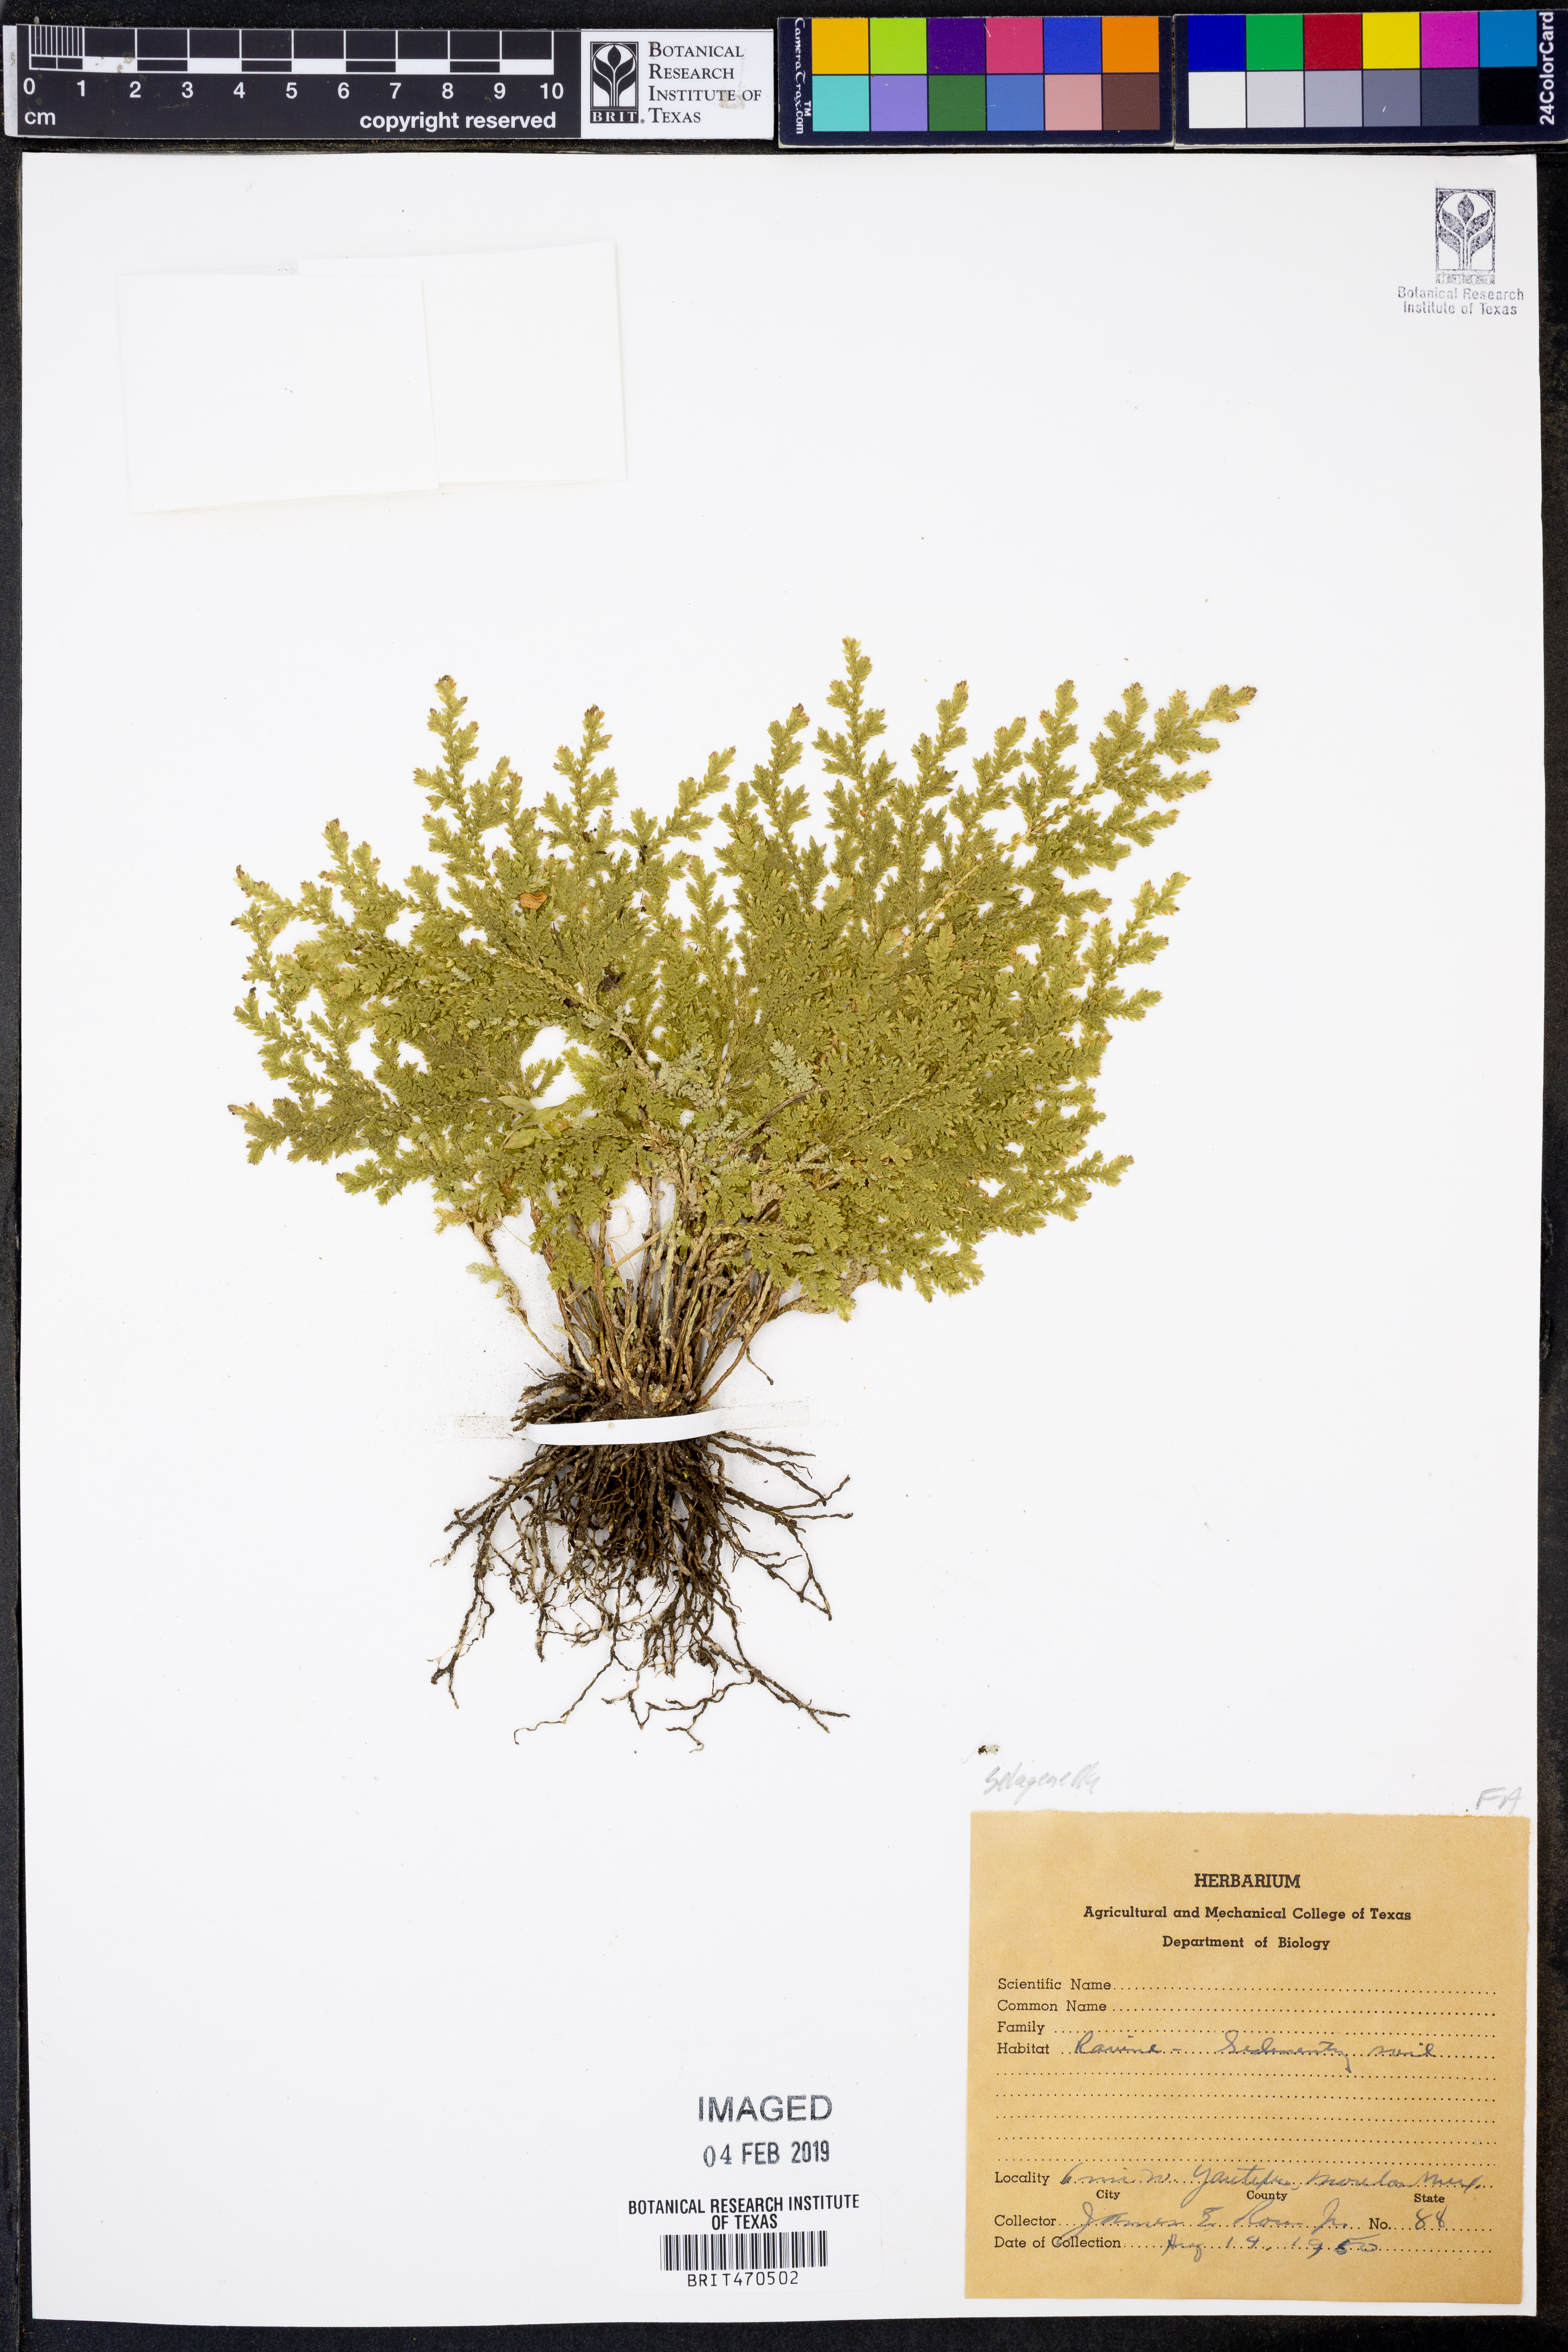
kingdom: Plantae
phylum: Tracheophyta
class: Lycopodiopsida
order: Selaginellales
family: Selaginellaceae
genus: Selaginella
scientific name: Selaginella
